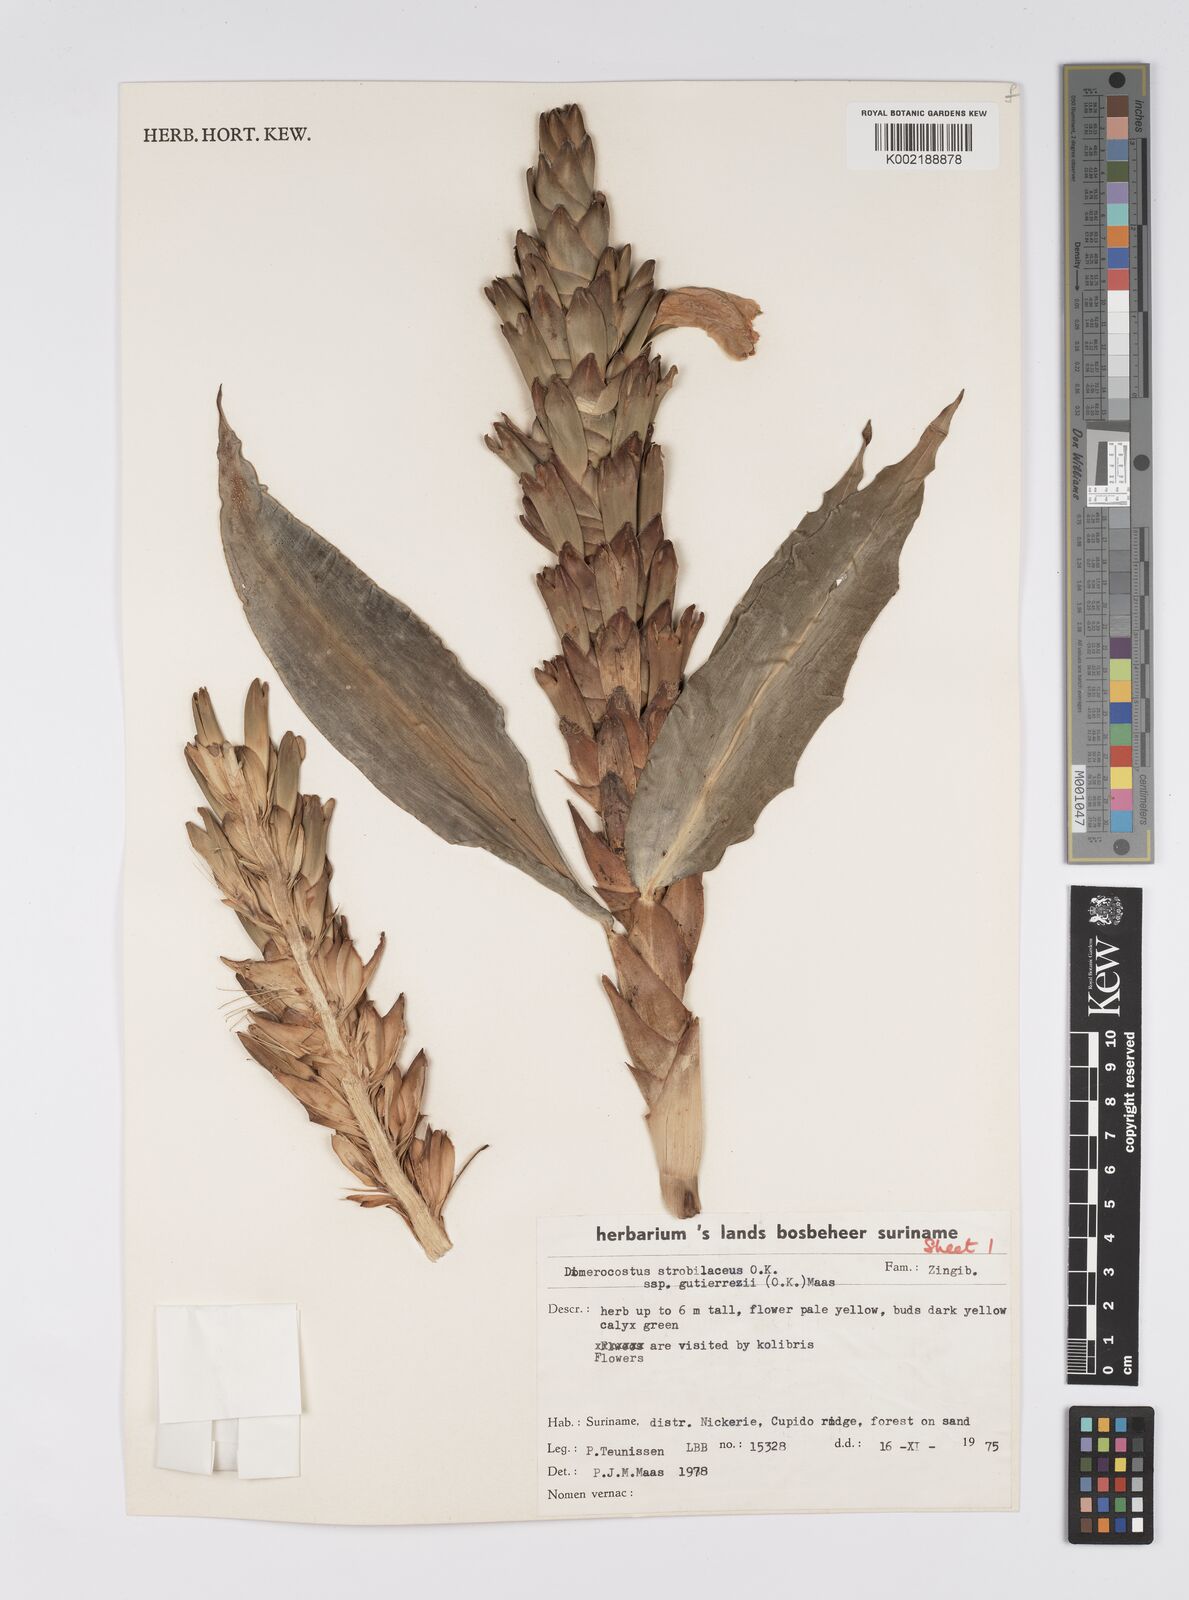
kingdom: Plantae
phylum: Tracheophyta
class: Liliopsida
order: Zingiberales
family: Costaceae
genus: Dimerocostus
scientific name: Dimerocostus strobilaceus
